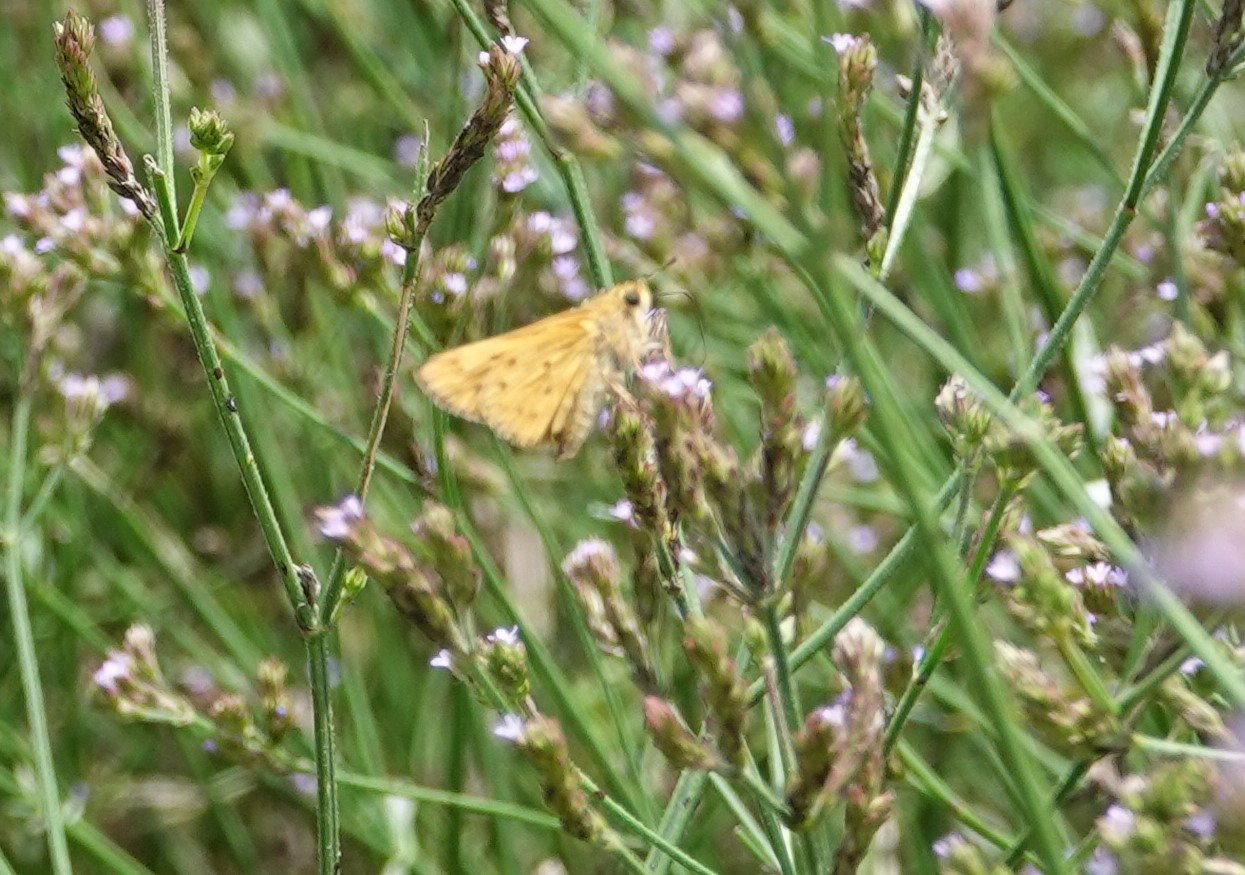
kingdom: Animalia
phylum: Arthropoda
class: Insecta
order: Lepidoptera
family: Hesperiidae
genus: Hylephila
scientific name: Hylephila phyleus
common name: Fiery Skipper
